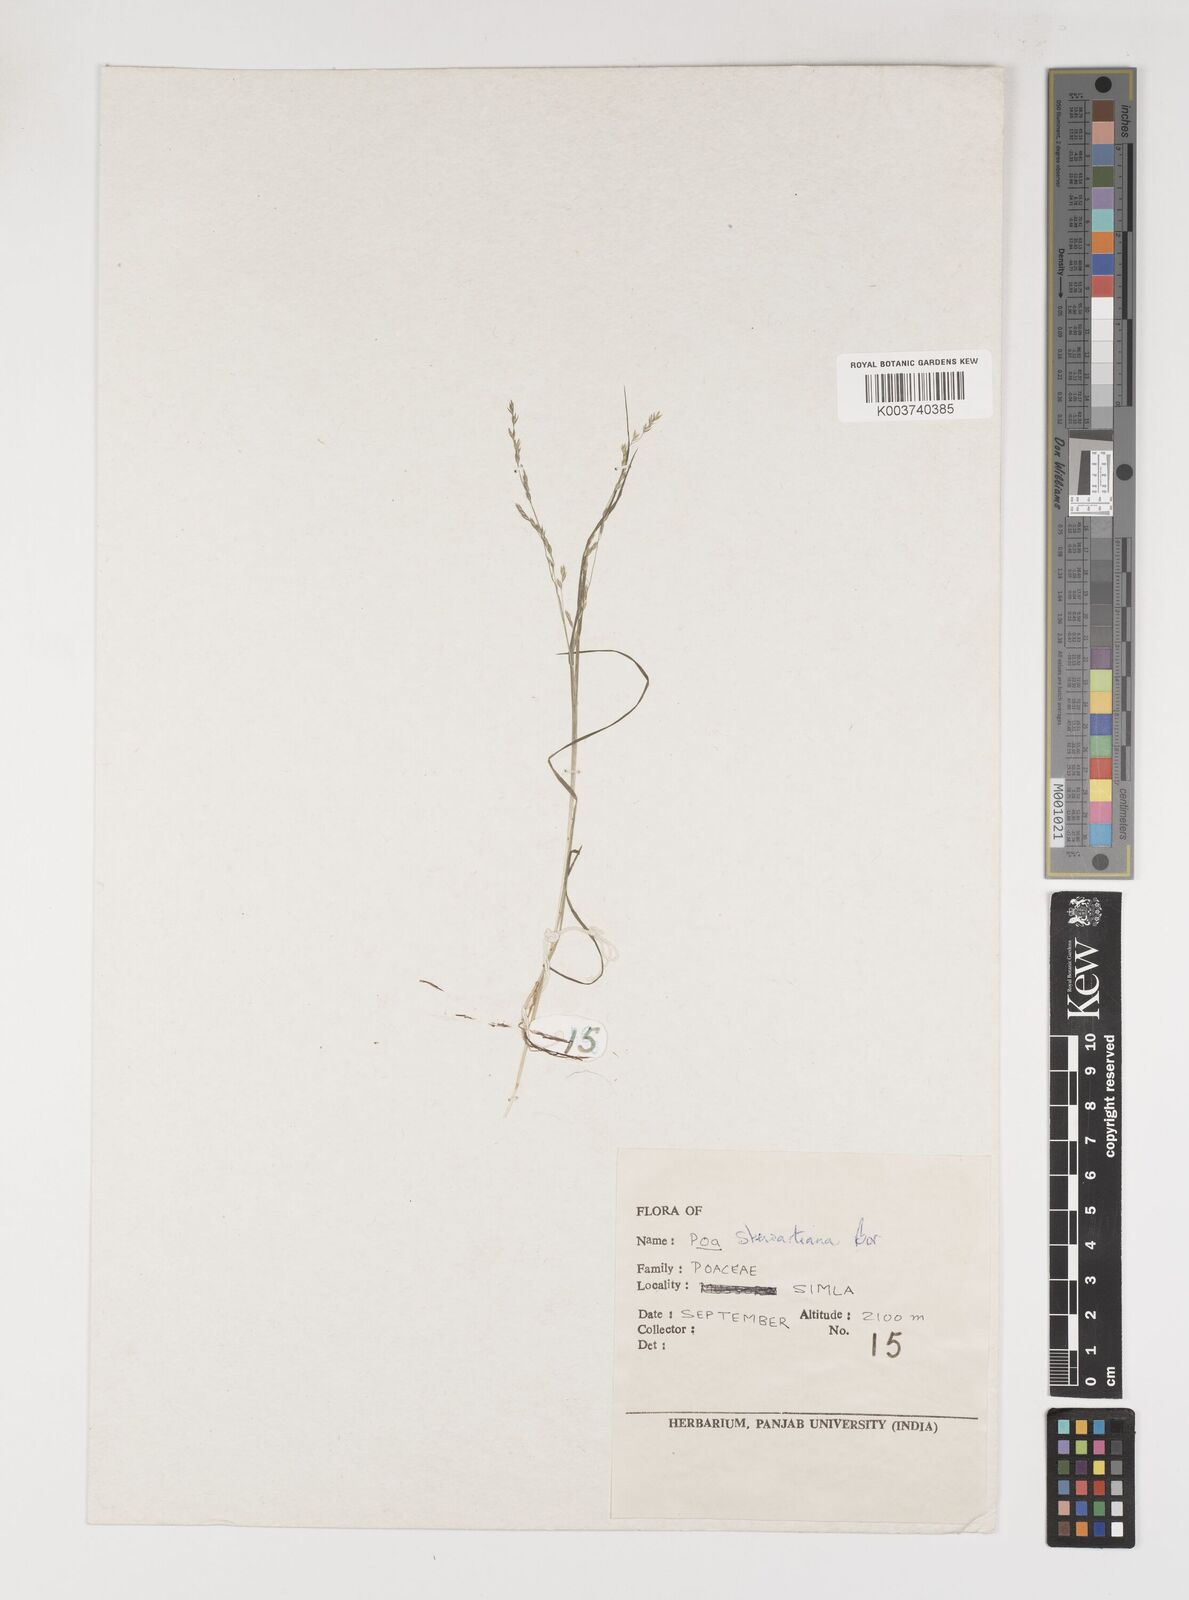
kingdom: Plantae
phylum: Tracheophyta
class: Liliopsida
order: Poales
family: Poaceae
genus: Poa
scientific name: Poa stewartiana
